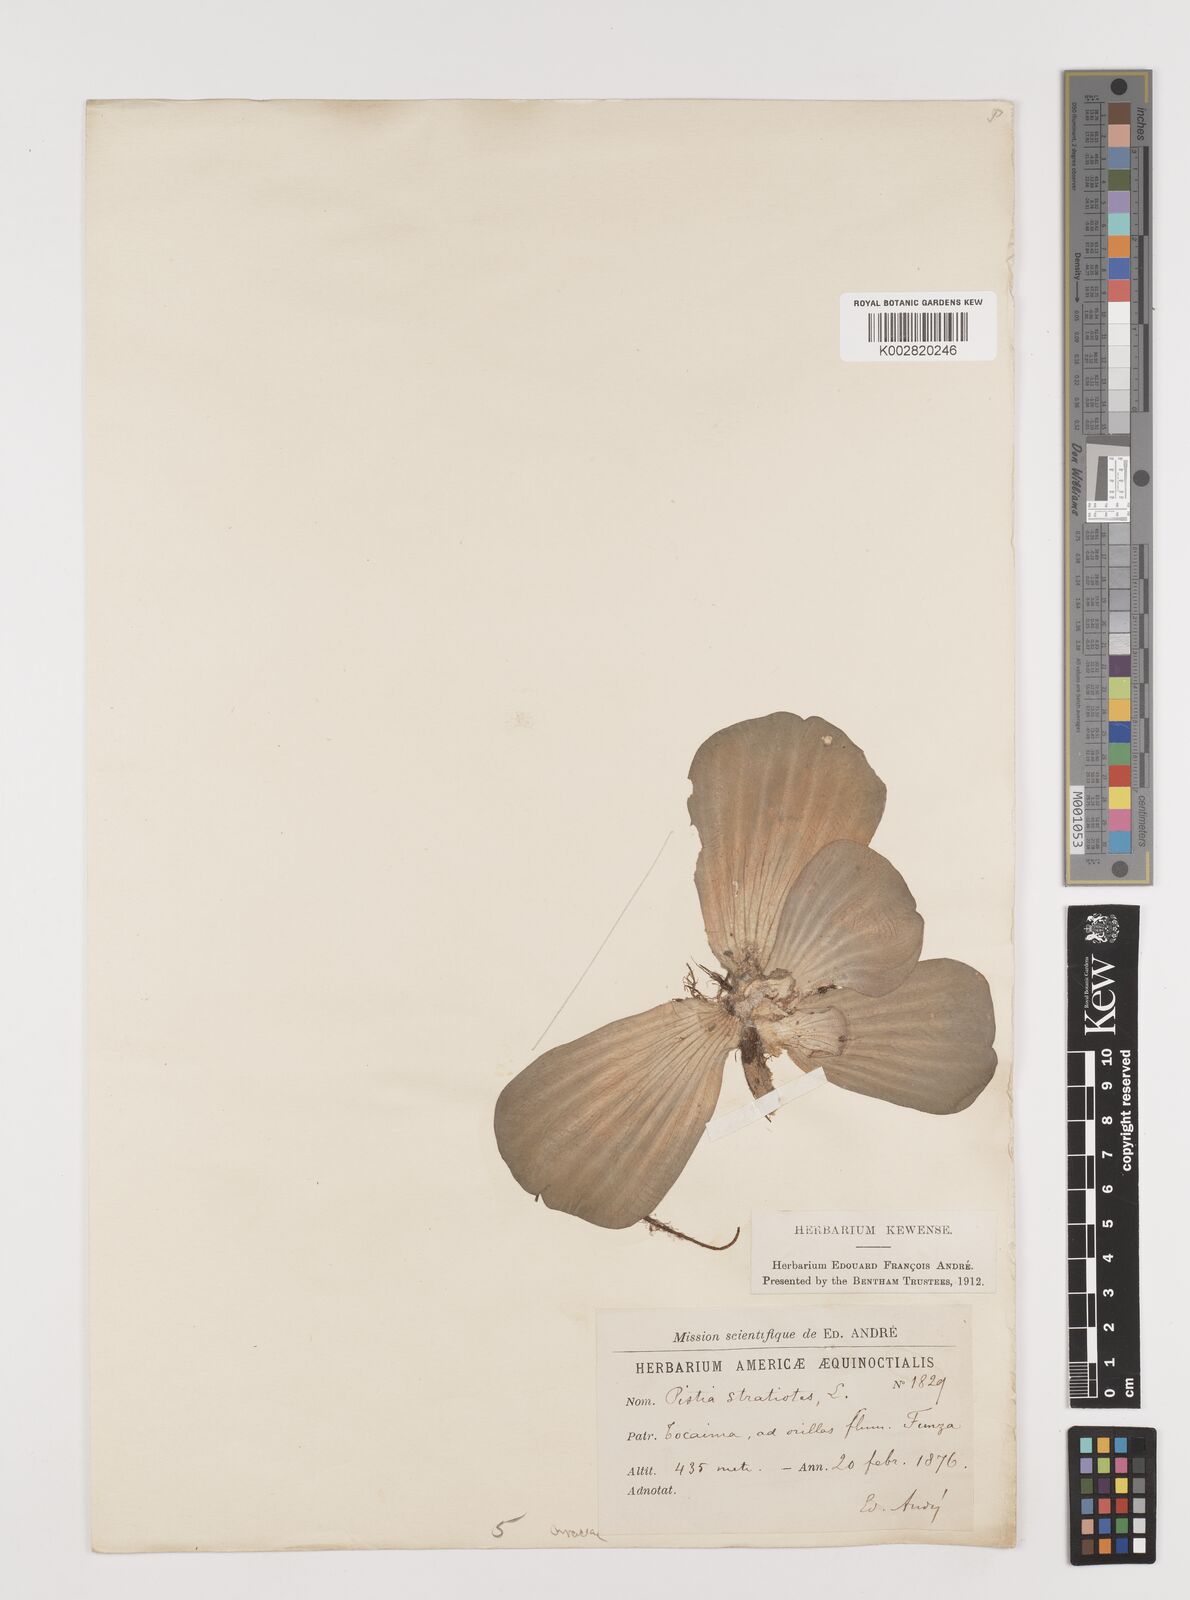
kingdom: Plantae
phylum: Tracheophyta
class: Liliopsida
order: Alismatales
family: Araceae
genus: Pistia
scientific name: Pistia stratiotes
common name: Water lettuce
